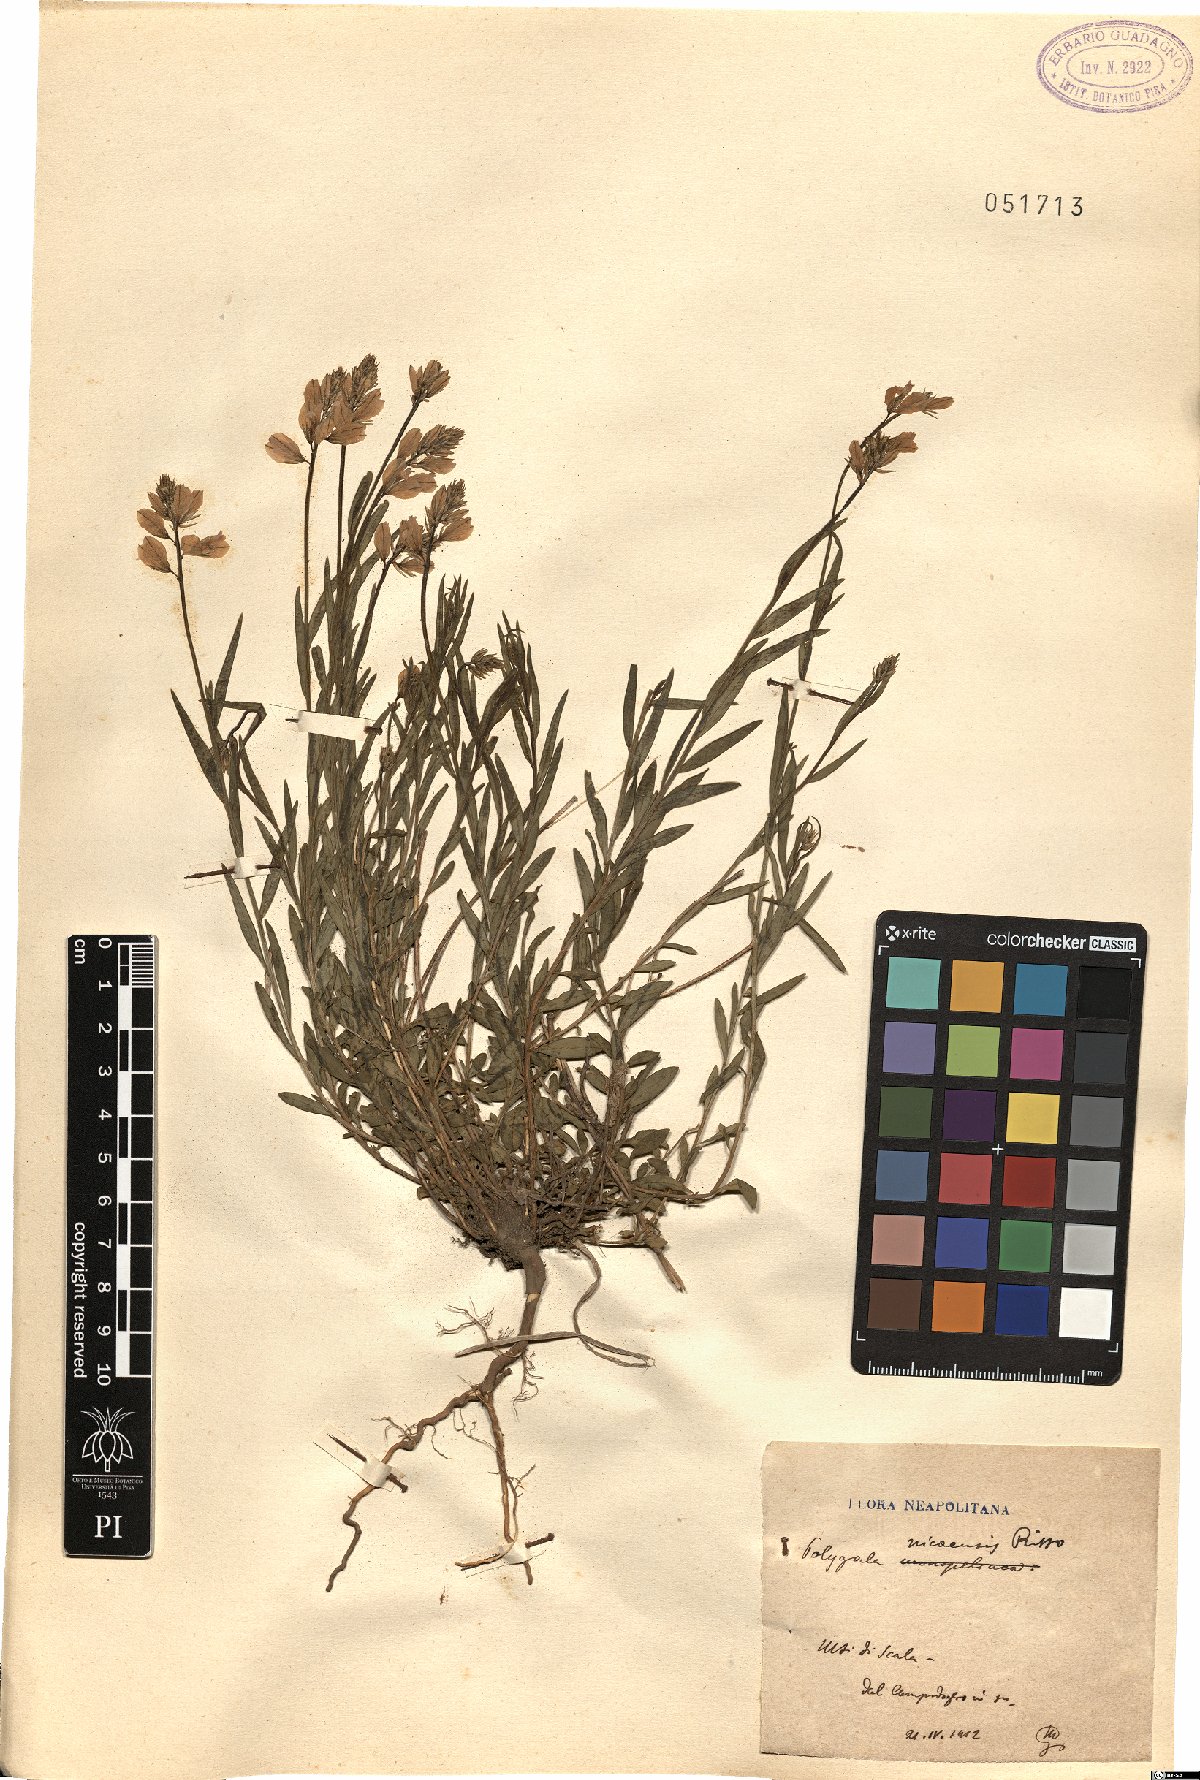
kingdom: Plantae
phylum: Tracheophyta
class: Magnoliopsida
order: Fabales
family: Polygalaceae
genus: Polygala
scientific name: Polygala nicaeensis
